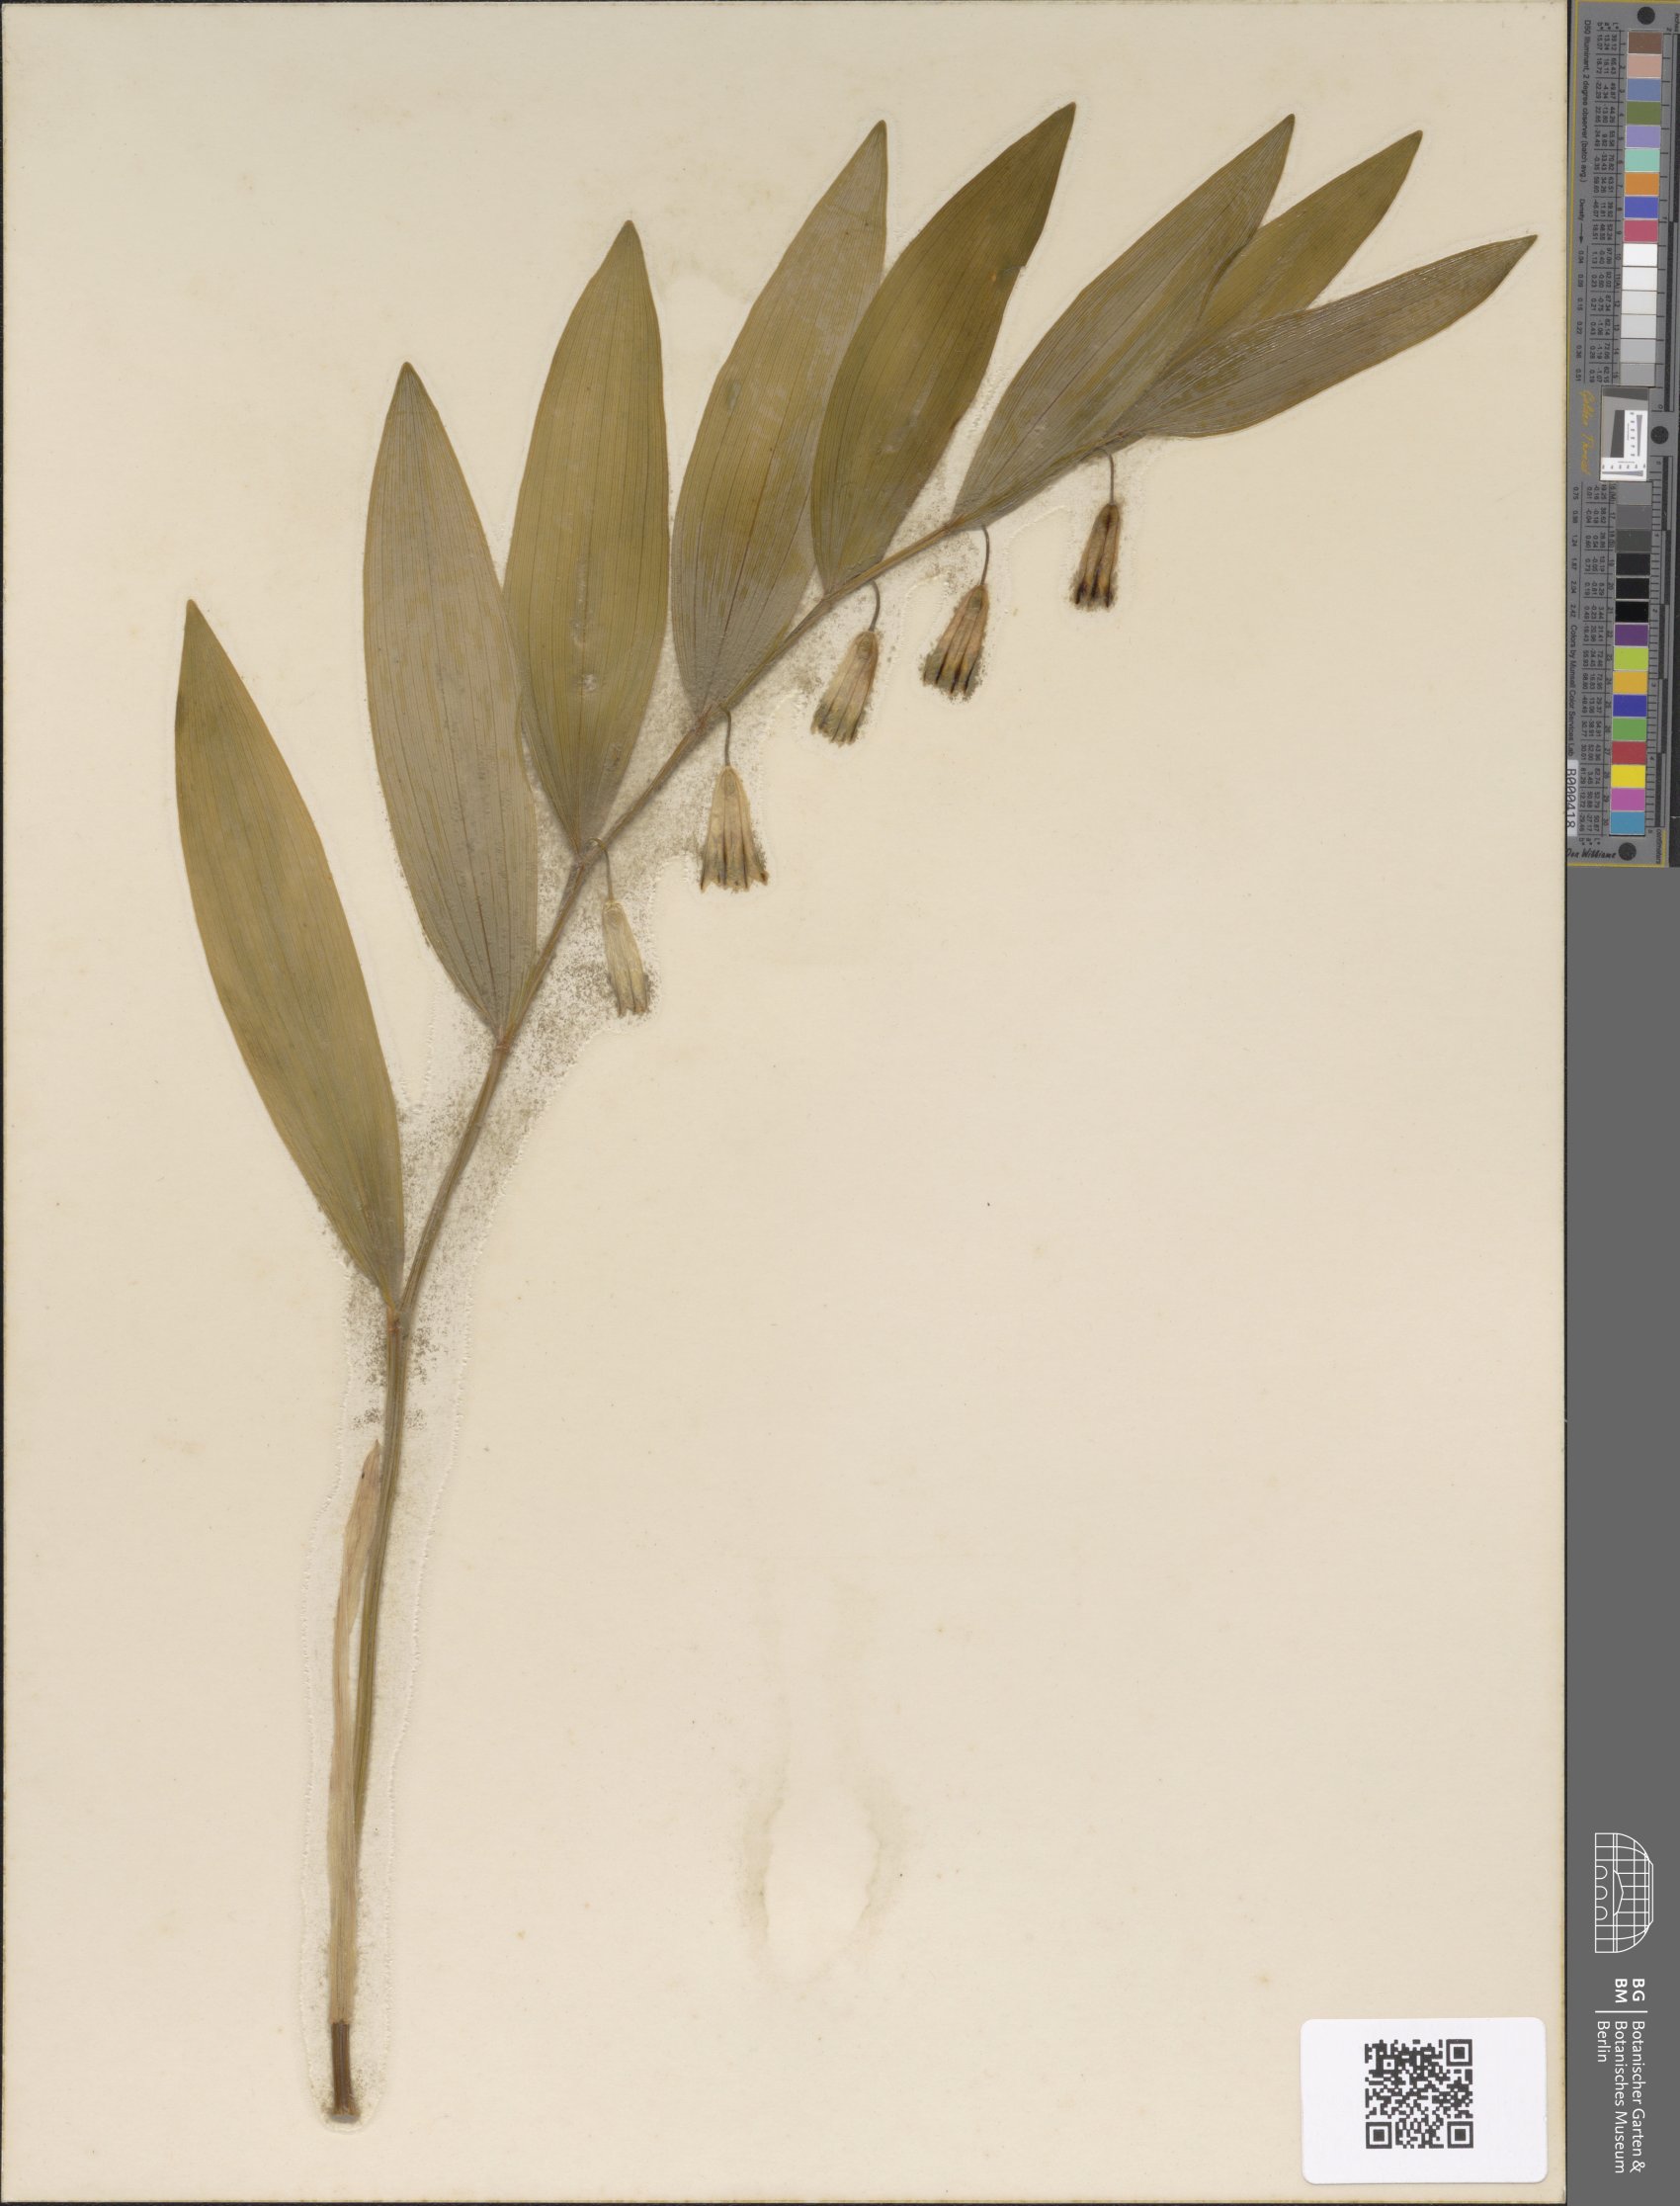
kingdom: Plantae
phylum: Tracheophyta
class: Liliopsida
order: Asparagales
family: Asparagaceae
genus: Polygonatum
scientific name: Polygonatum odoratum
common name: Angular solomon's-seal
